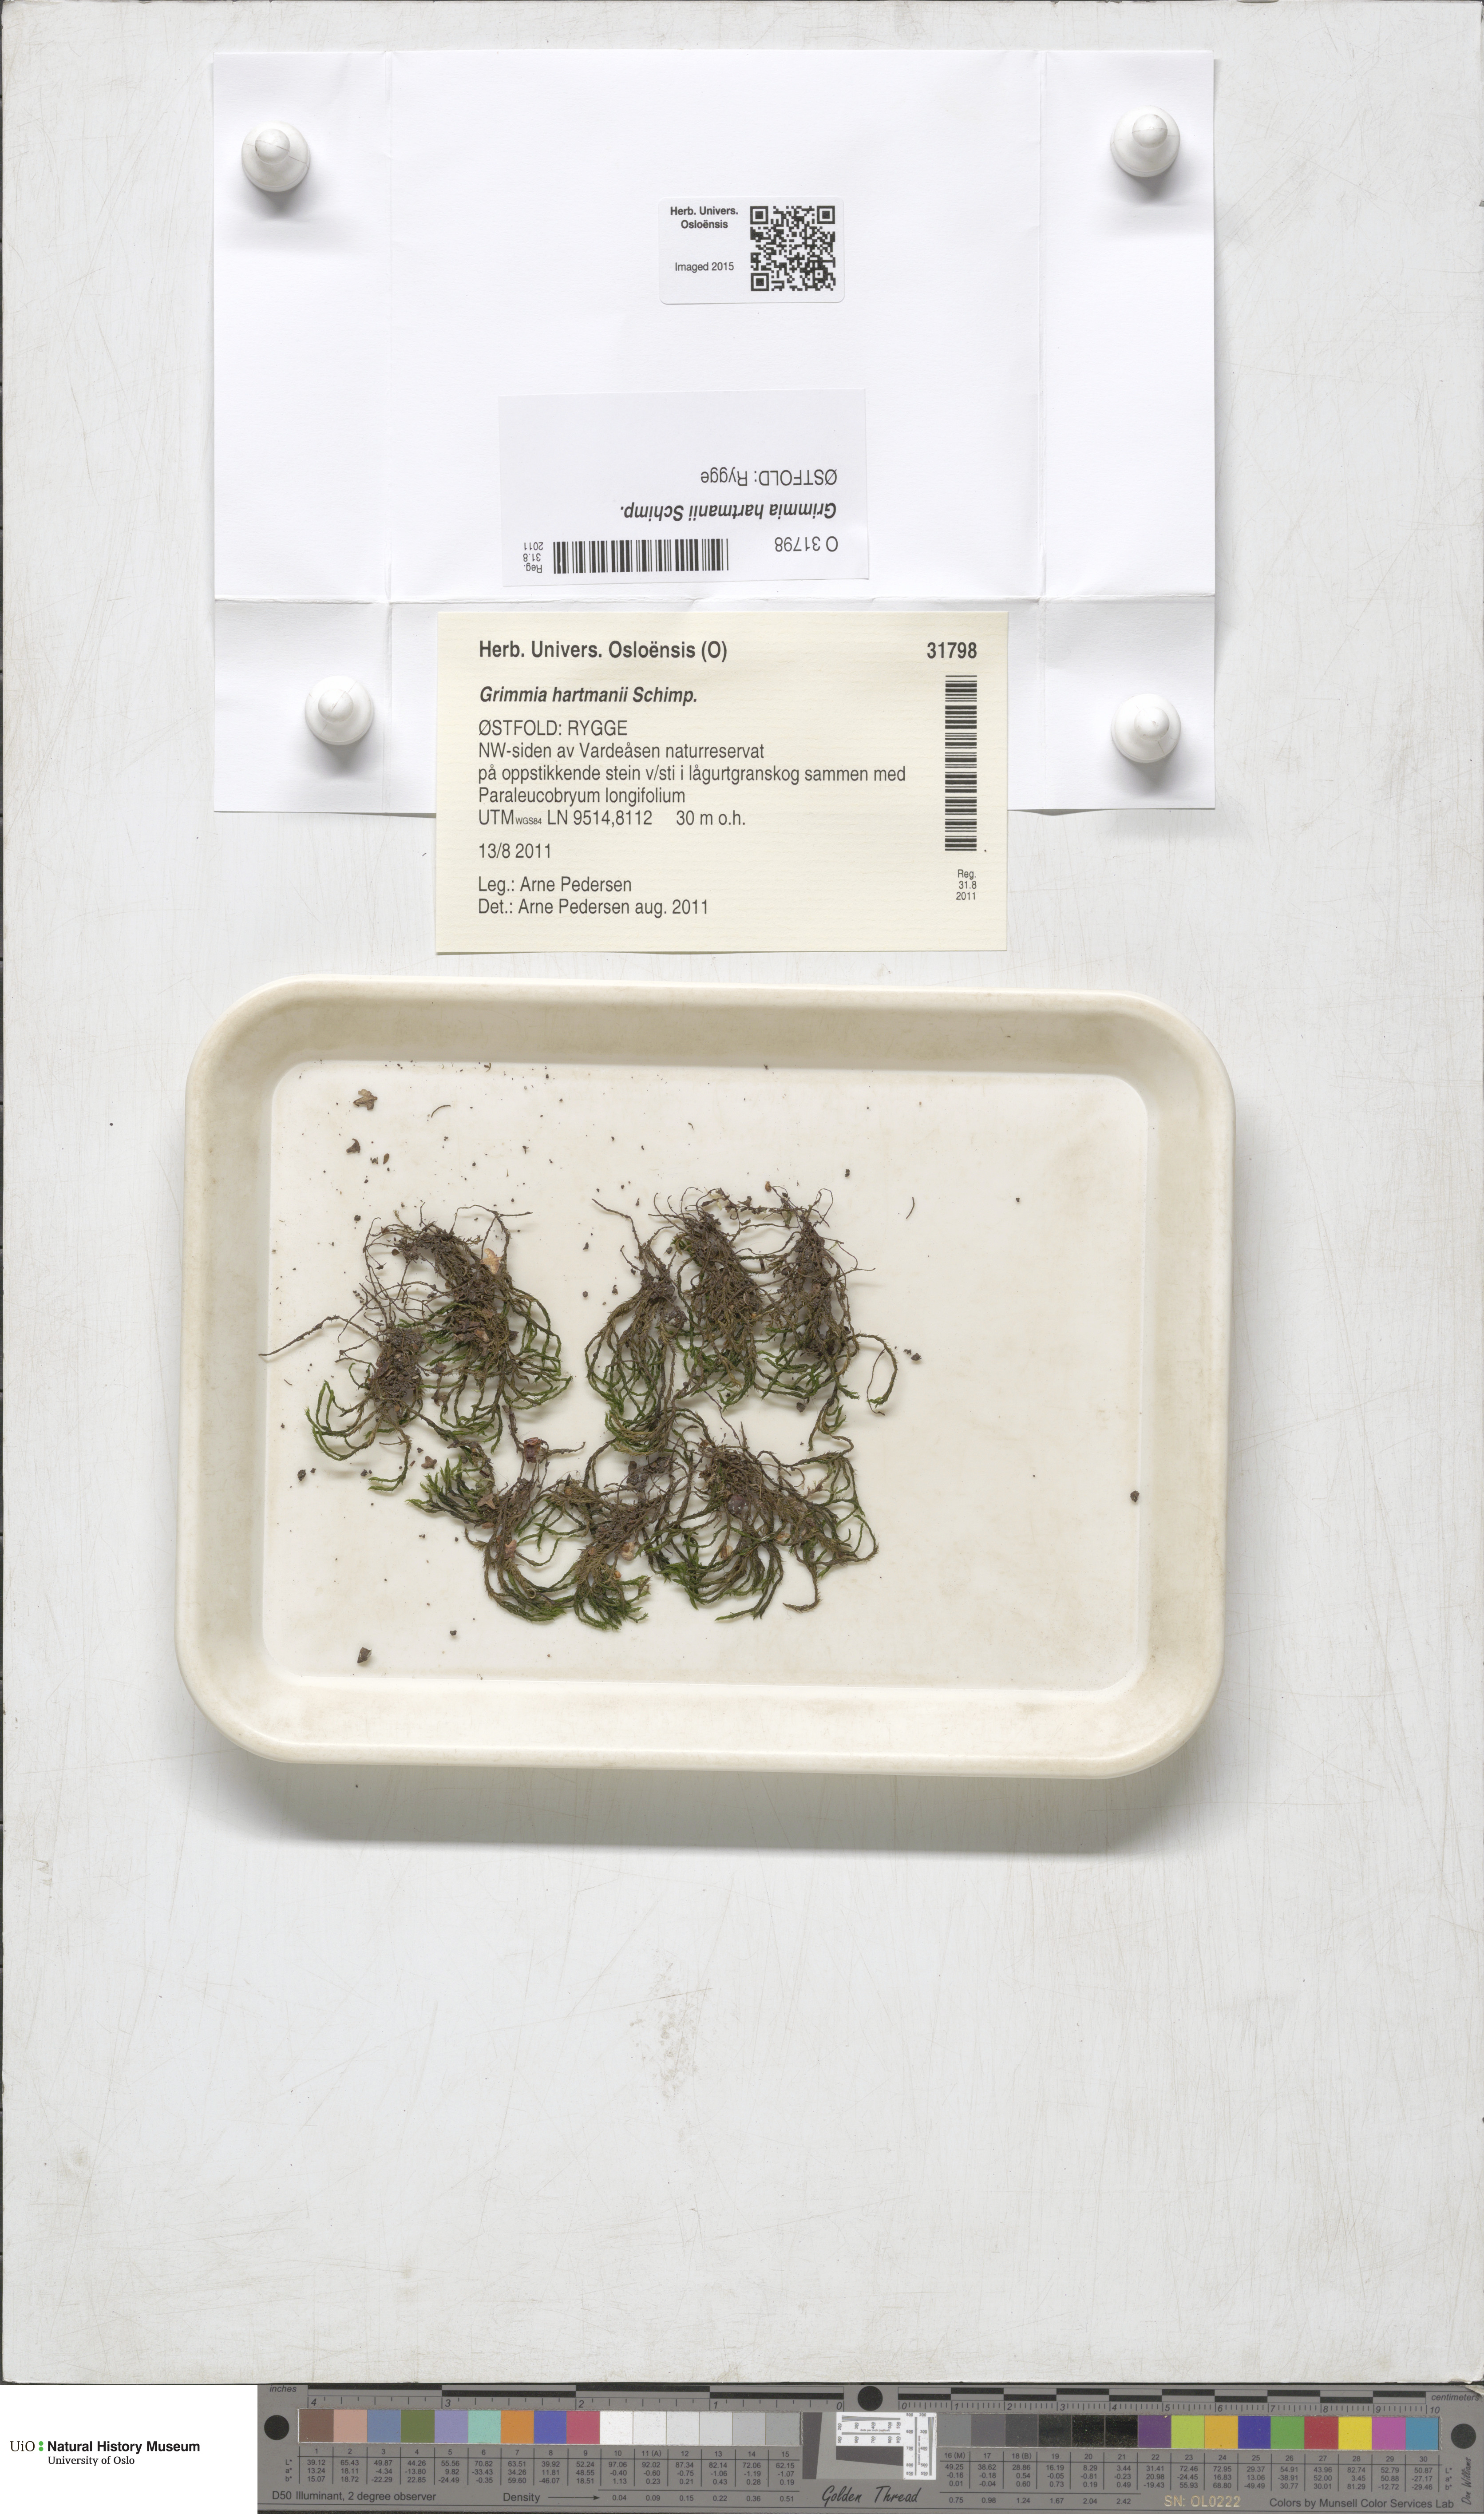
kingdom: Plantae
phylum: Bryophyta
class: Bryopsida
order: Grimmiales
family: Grimmiaceae
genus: Grimmia
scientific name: Grimmia hartmanii
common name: Hartman's grimmia
